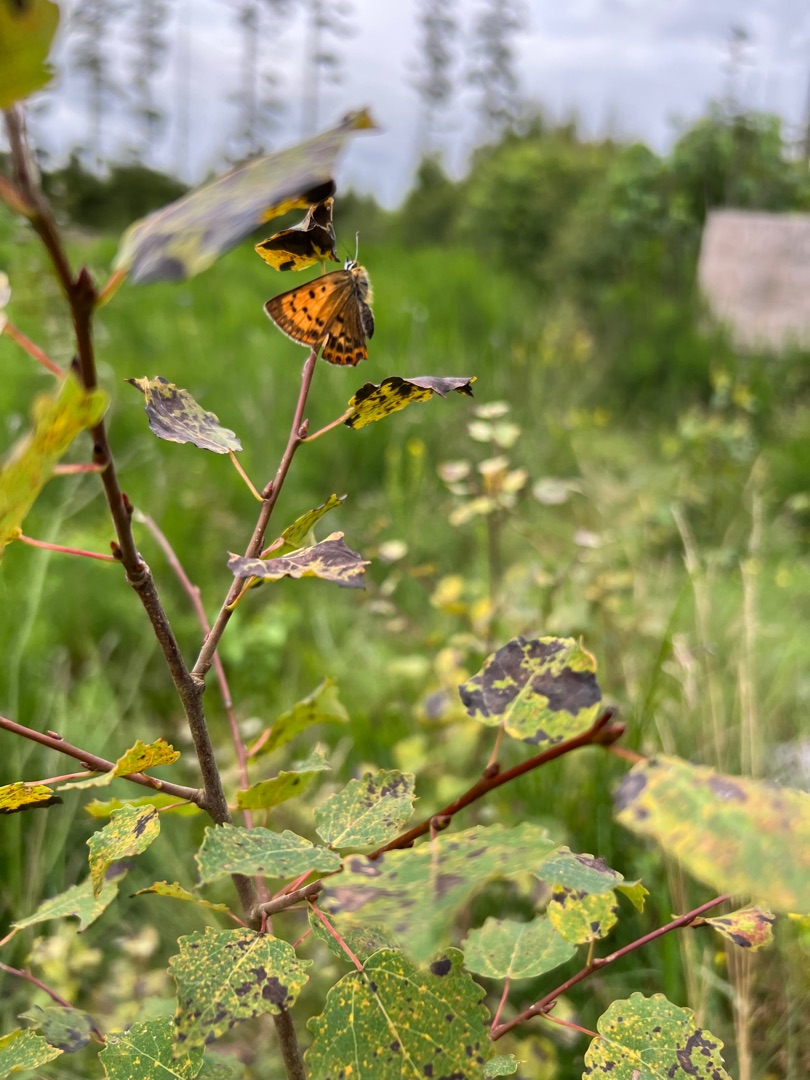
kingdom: Animalia
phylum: Arthropoda
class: Insecta
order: Lepidoptera
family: Lycaenidae
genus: Lycaena
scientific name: Lycaena virgaureae
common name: Dukatsommerfugl
